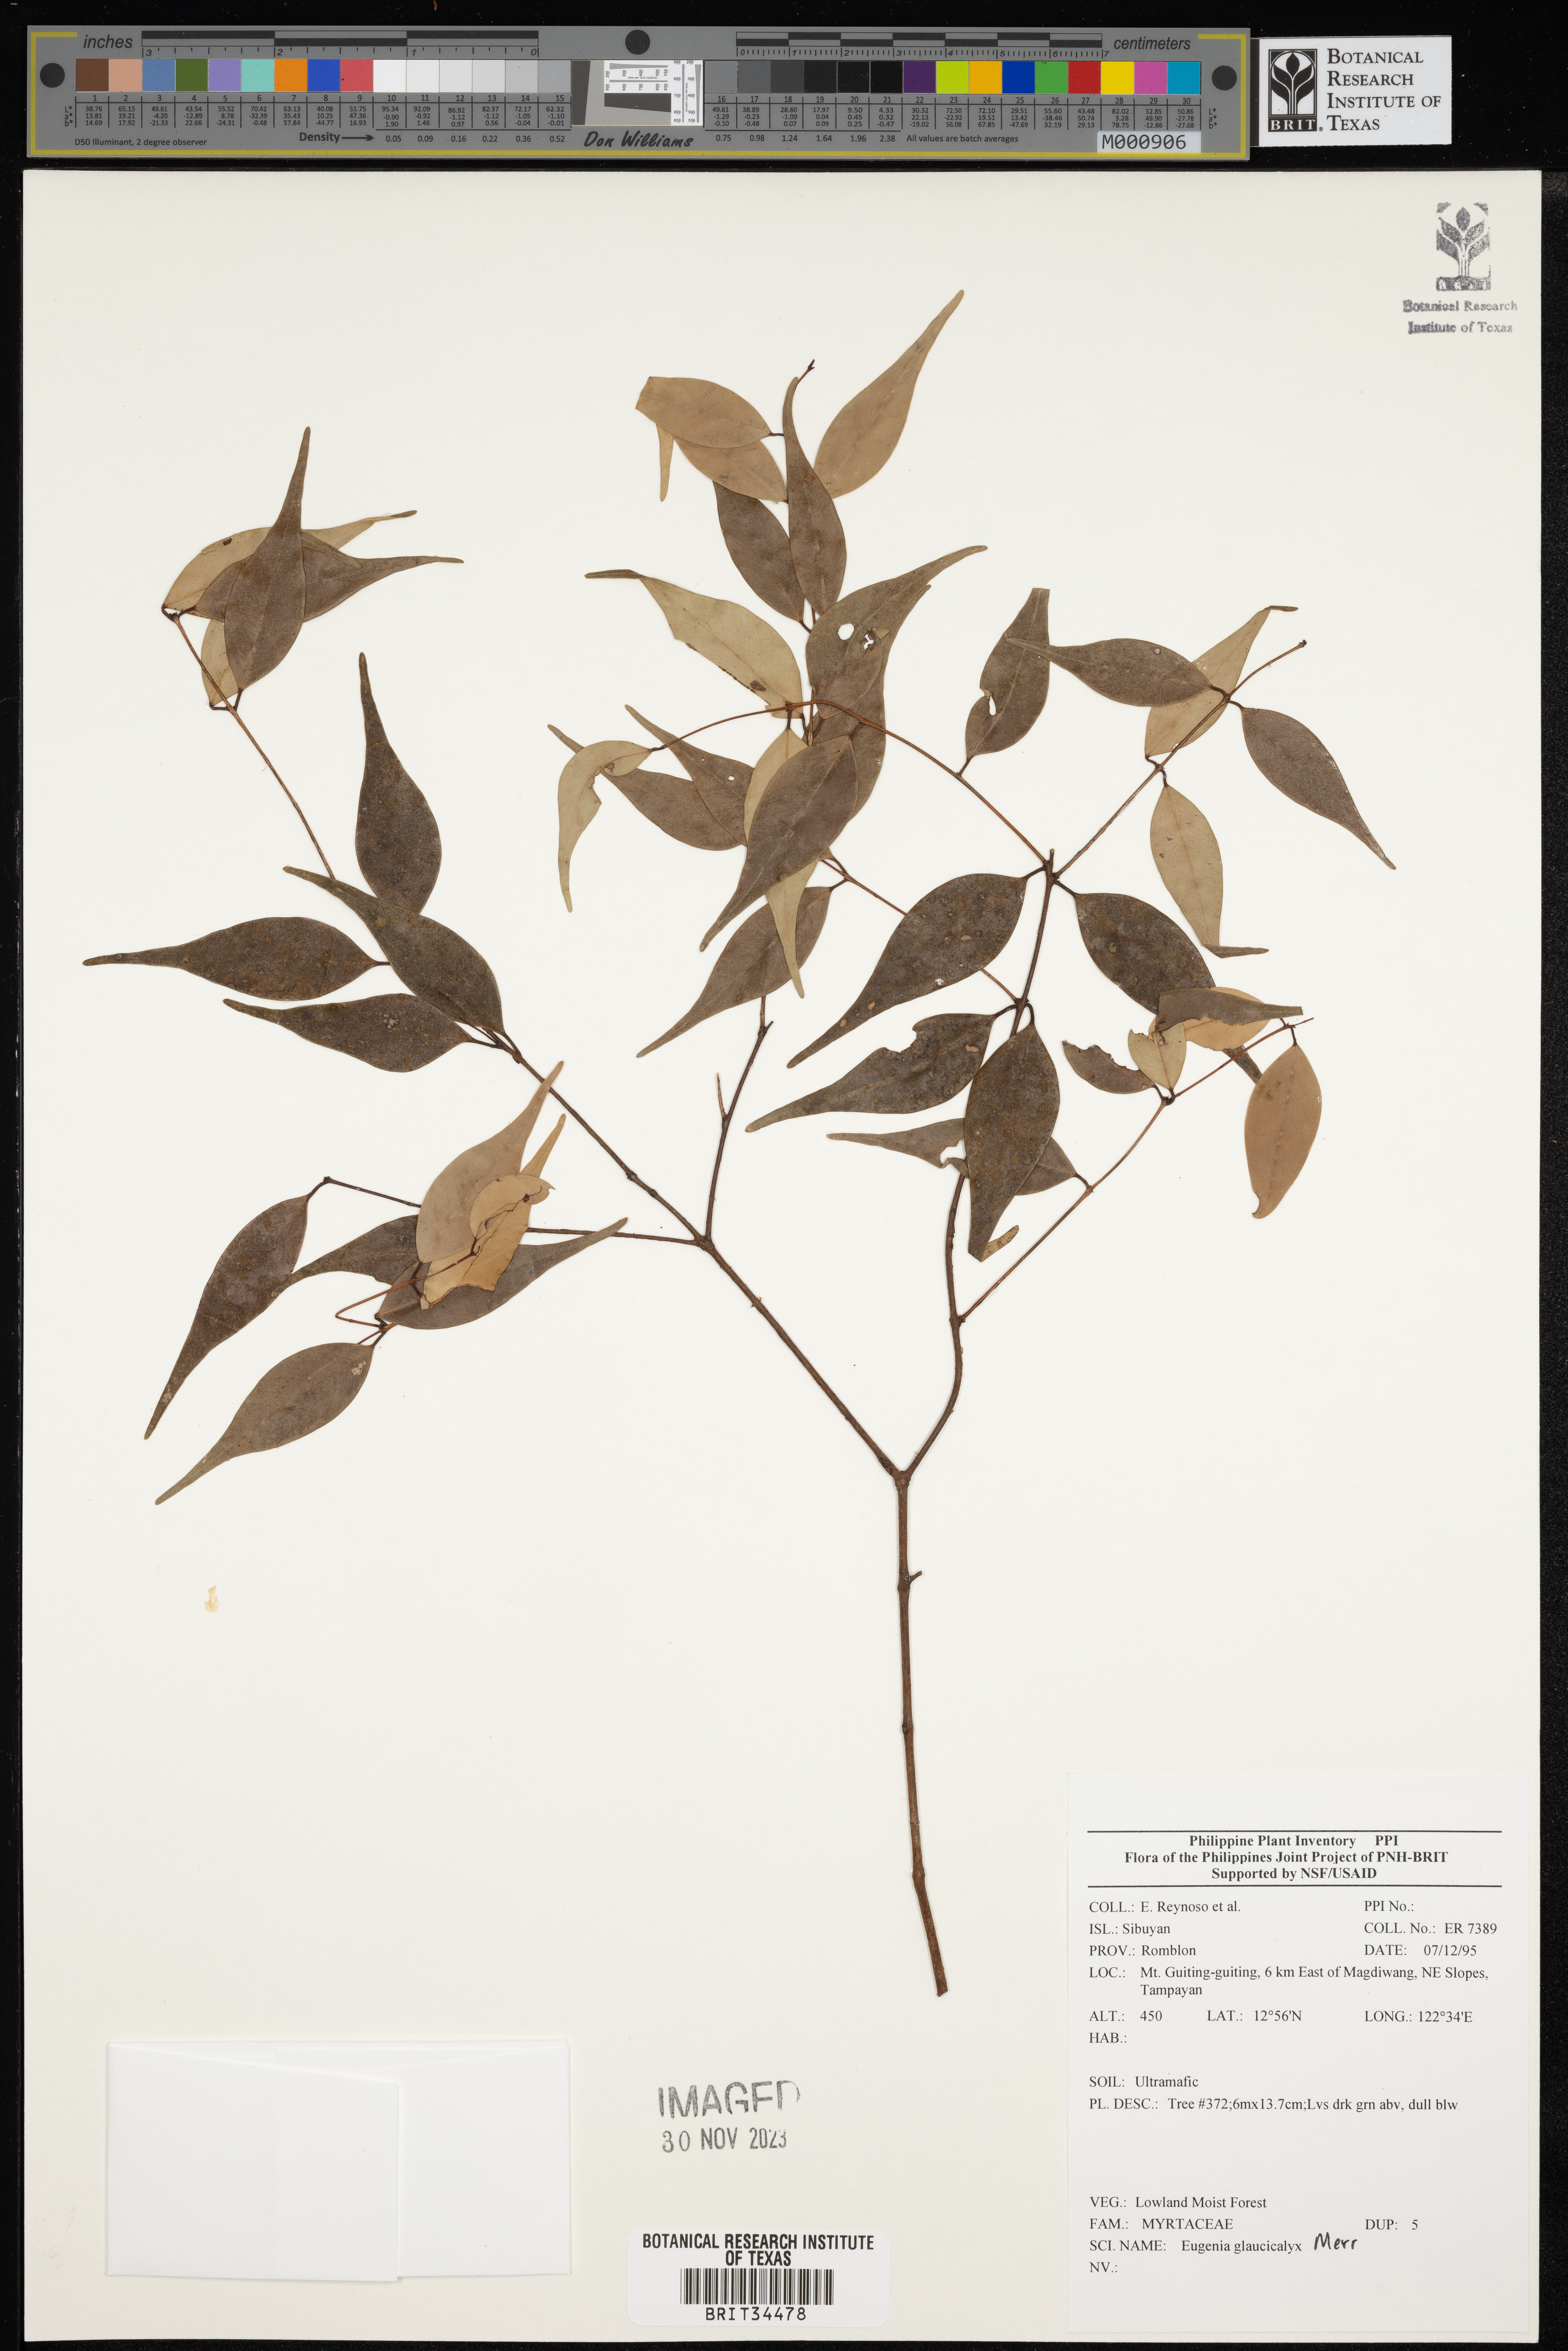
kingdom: Plantae
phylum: Tracheophyta
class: Magnoliopsida
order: Myrtales
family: Myrtaceae
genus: Eugenia
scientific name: Eugenia
